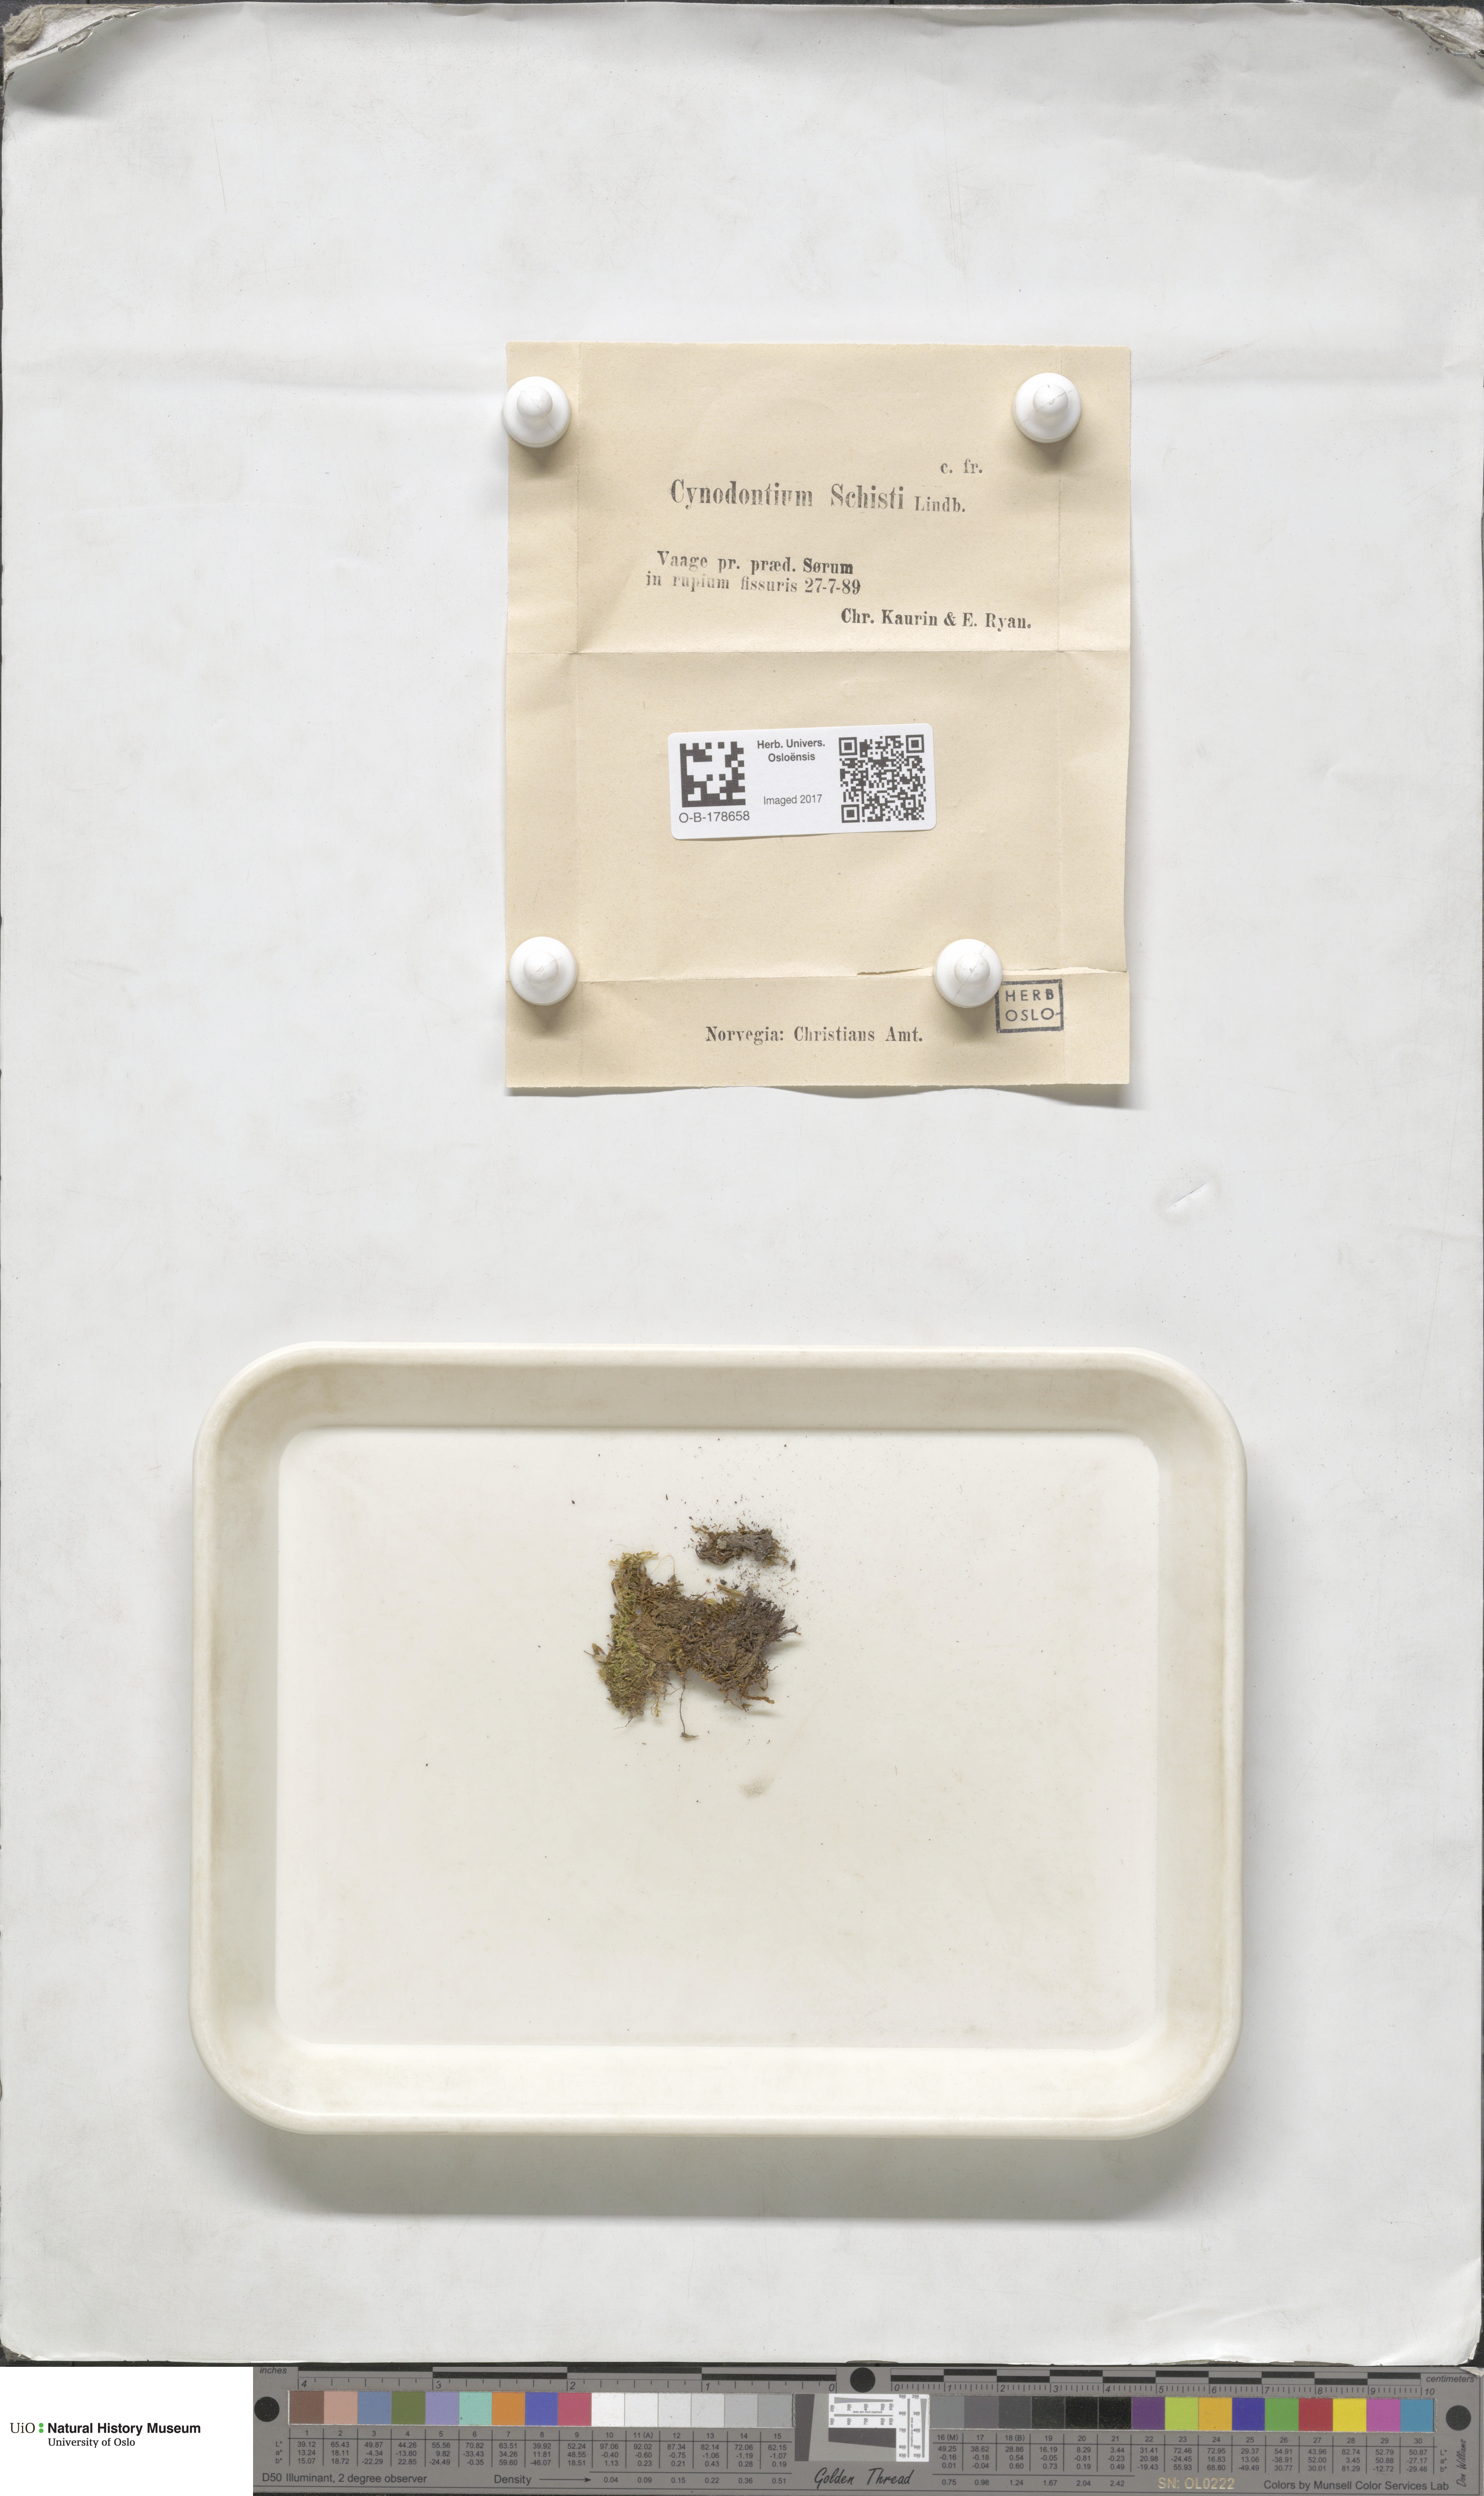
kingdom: Plantae
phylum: Bryophyta
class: Bryopsida
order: Dicranales
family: Rhabdoweisiaceae
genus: Cnestrum
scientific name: Cnestrum schisti
